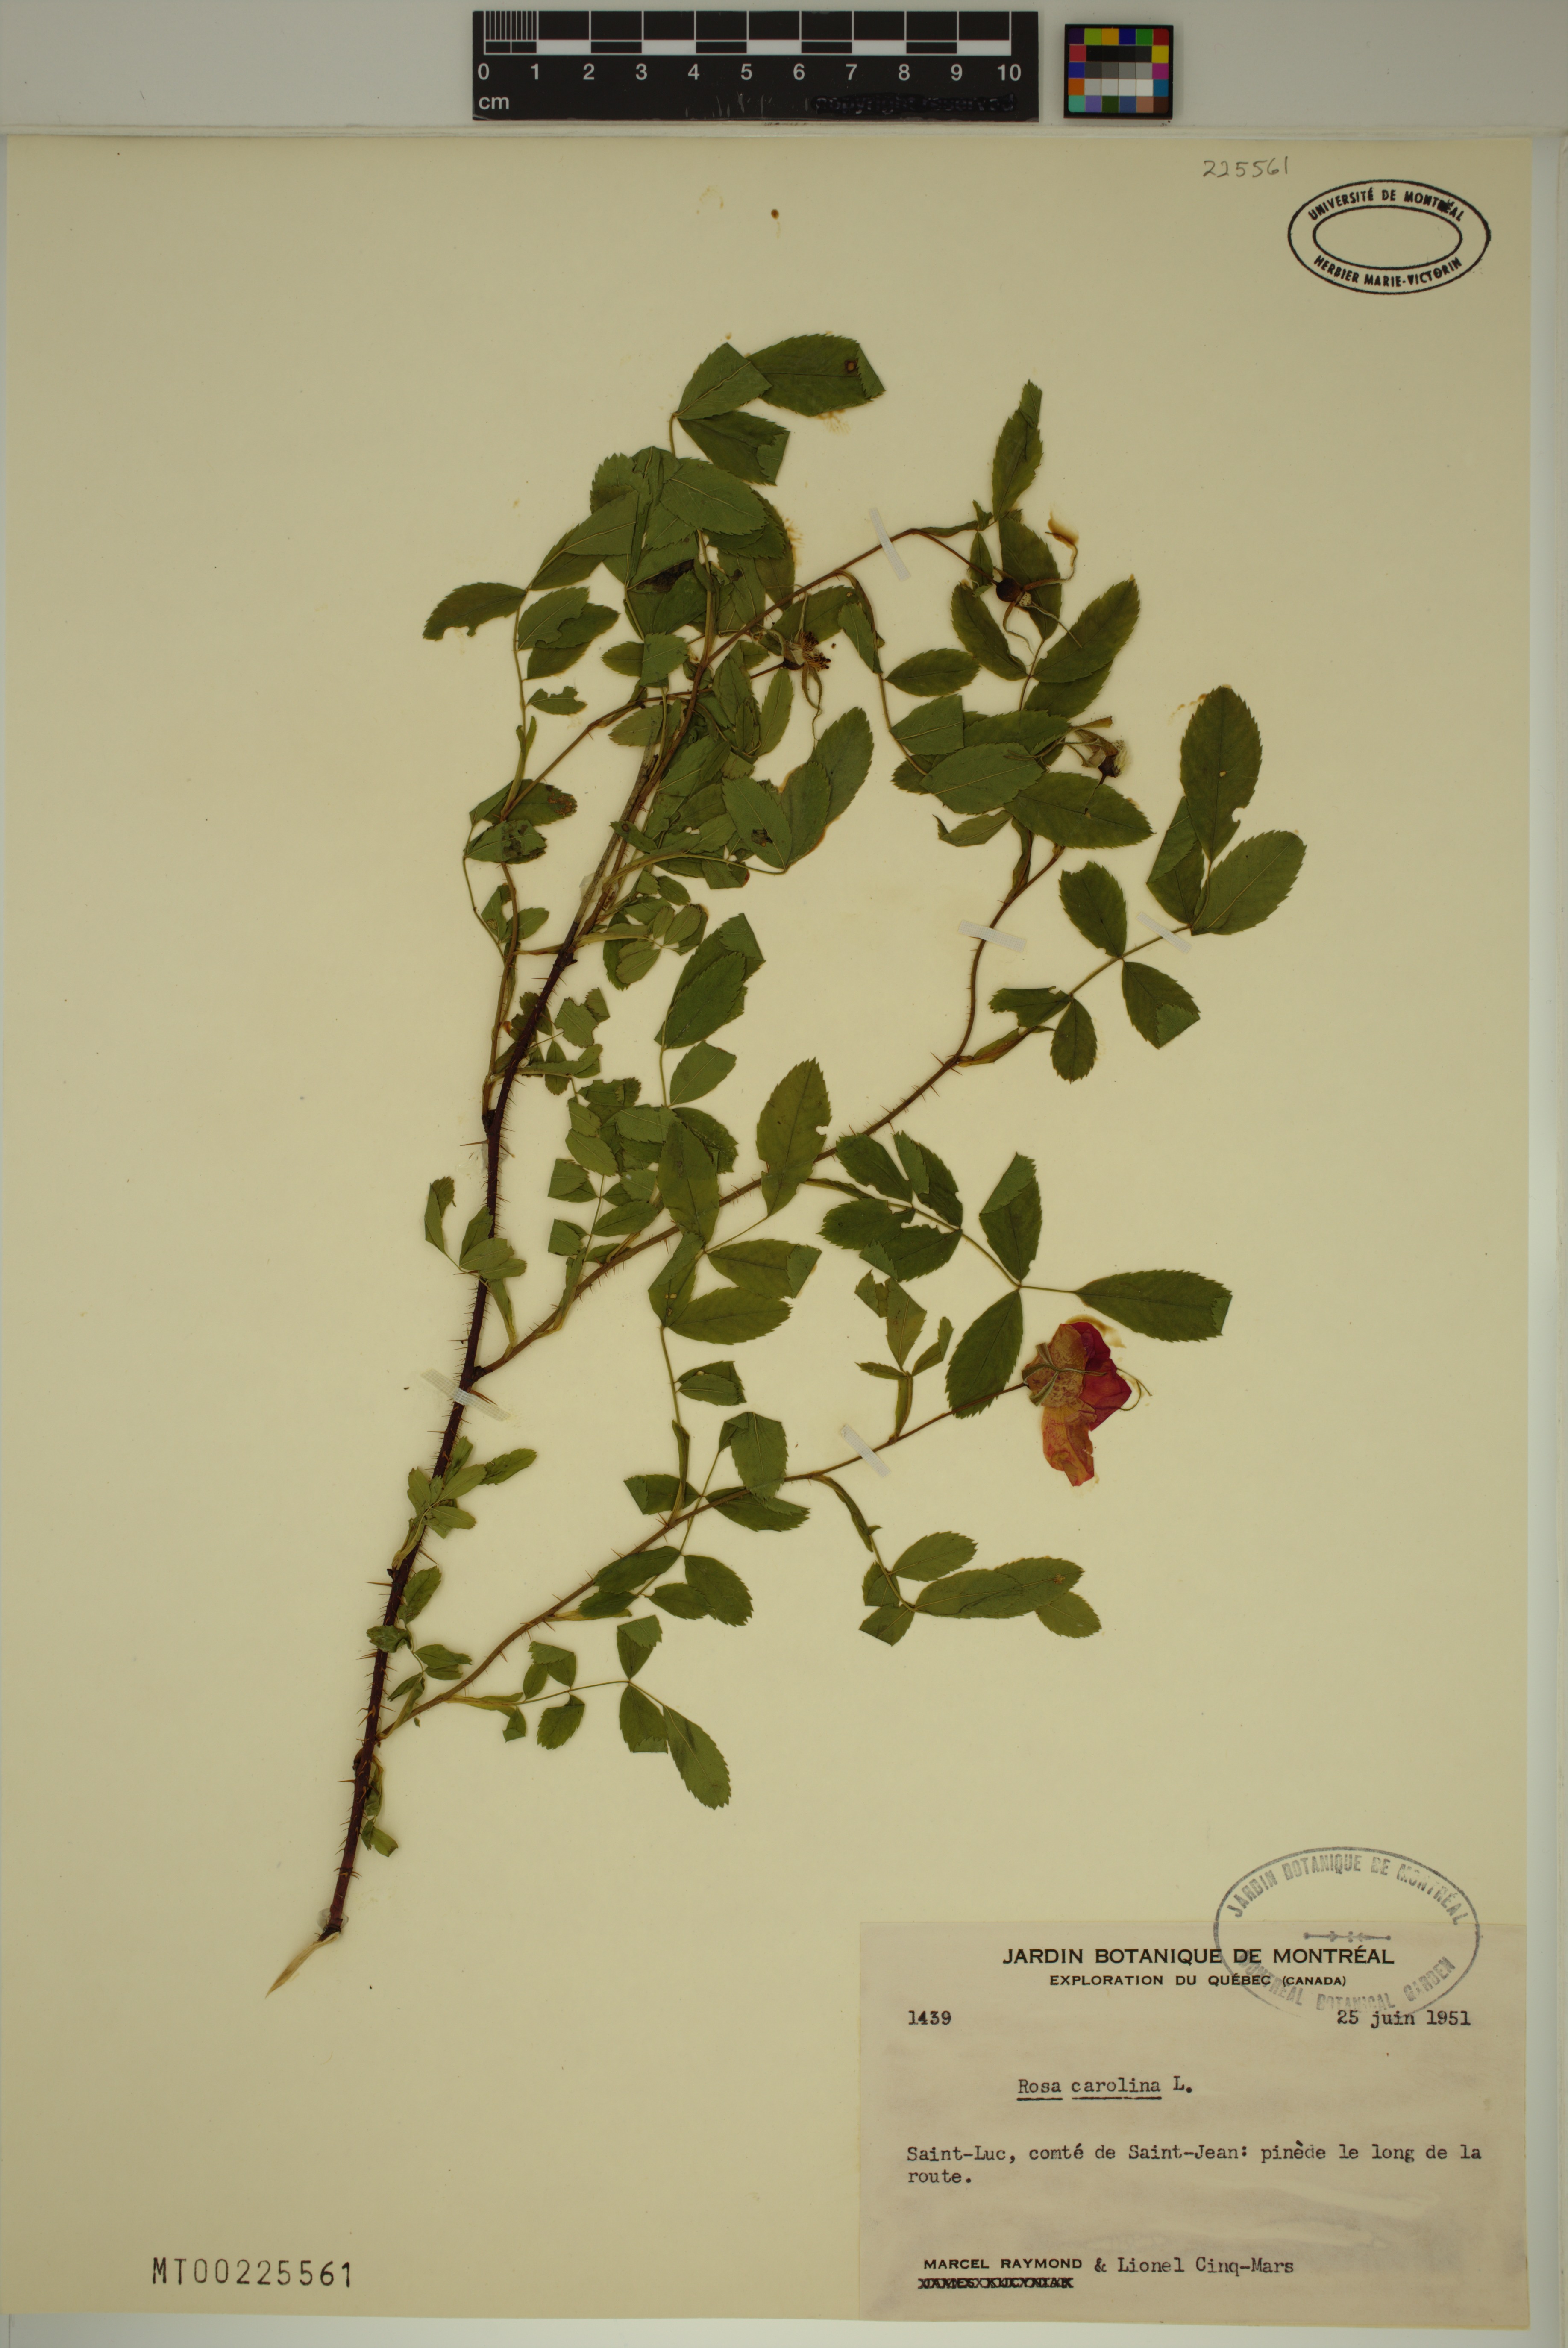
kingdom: Plantae
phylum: Tracheophyta
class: Magnoliopsida
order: Rosales
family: Rosaceae
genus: Rosa
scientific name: Rosa carolina
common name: Pasture rose
